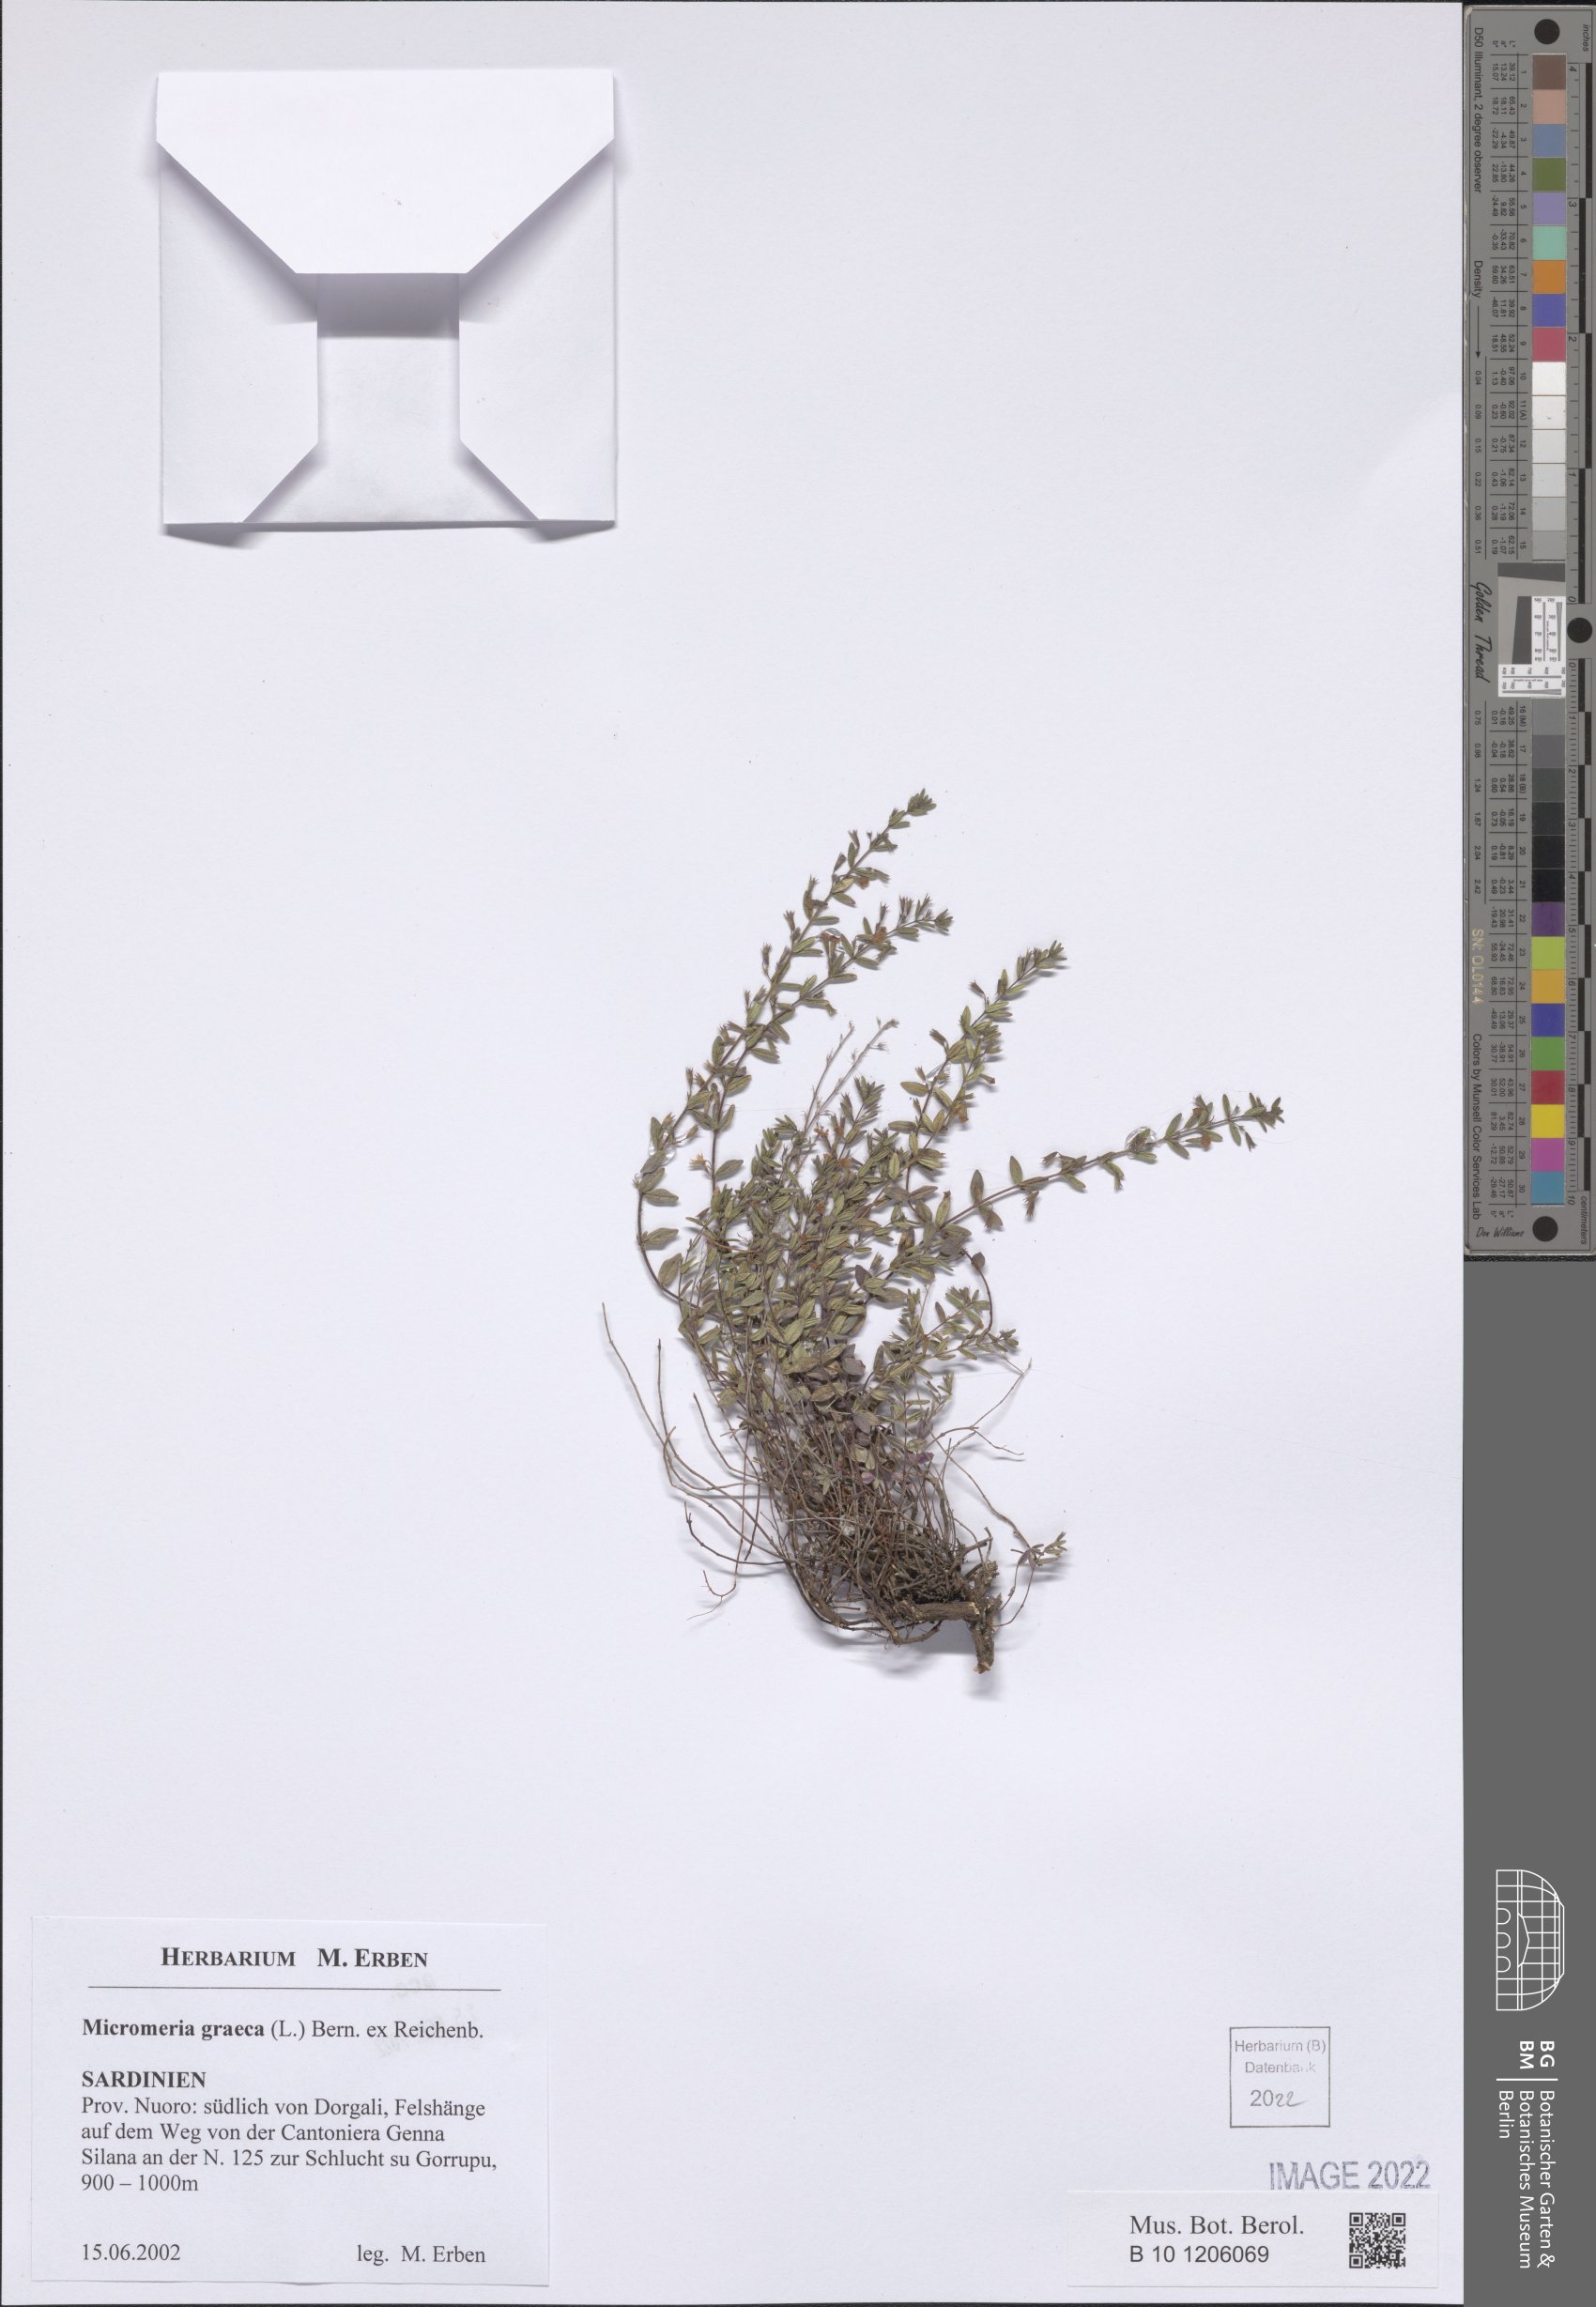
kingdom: Plantae
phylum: Tracheophyta
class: Magnoliopsida
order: Lamiales
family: Lamiaceae
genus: Micromeria
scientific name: Micromeria graeca
